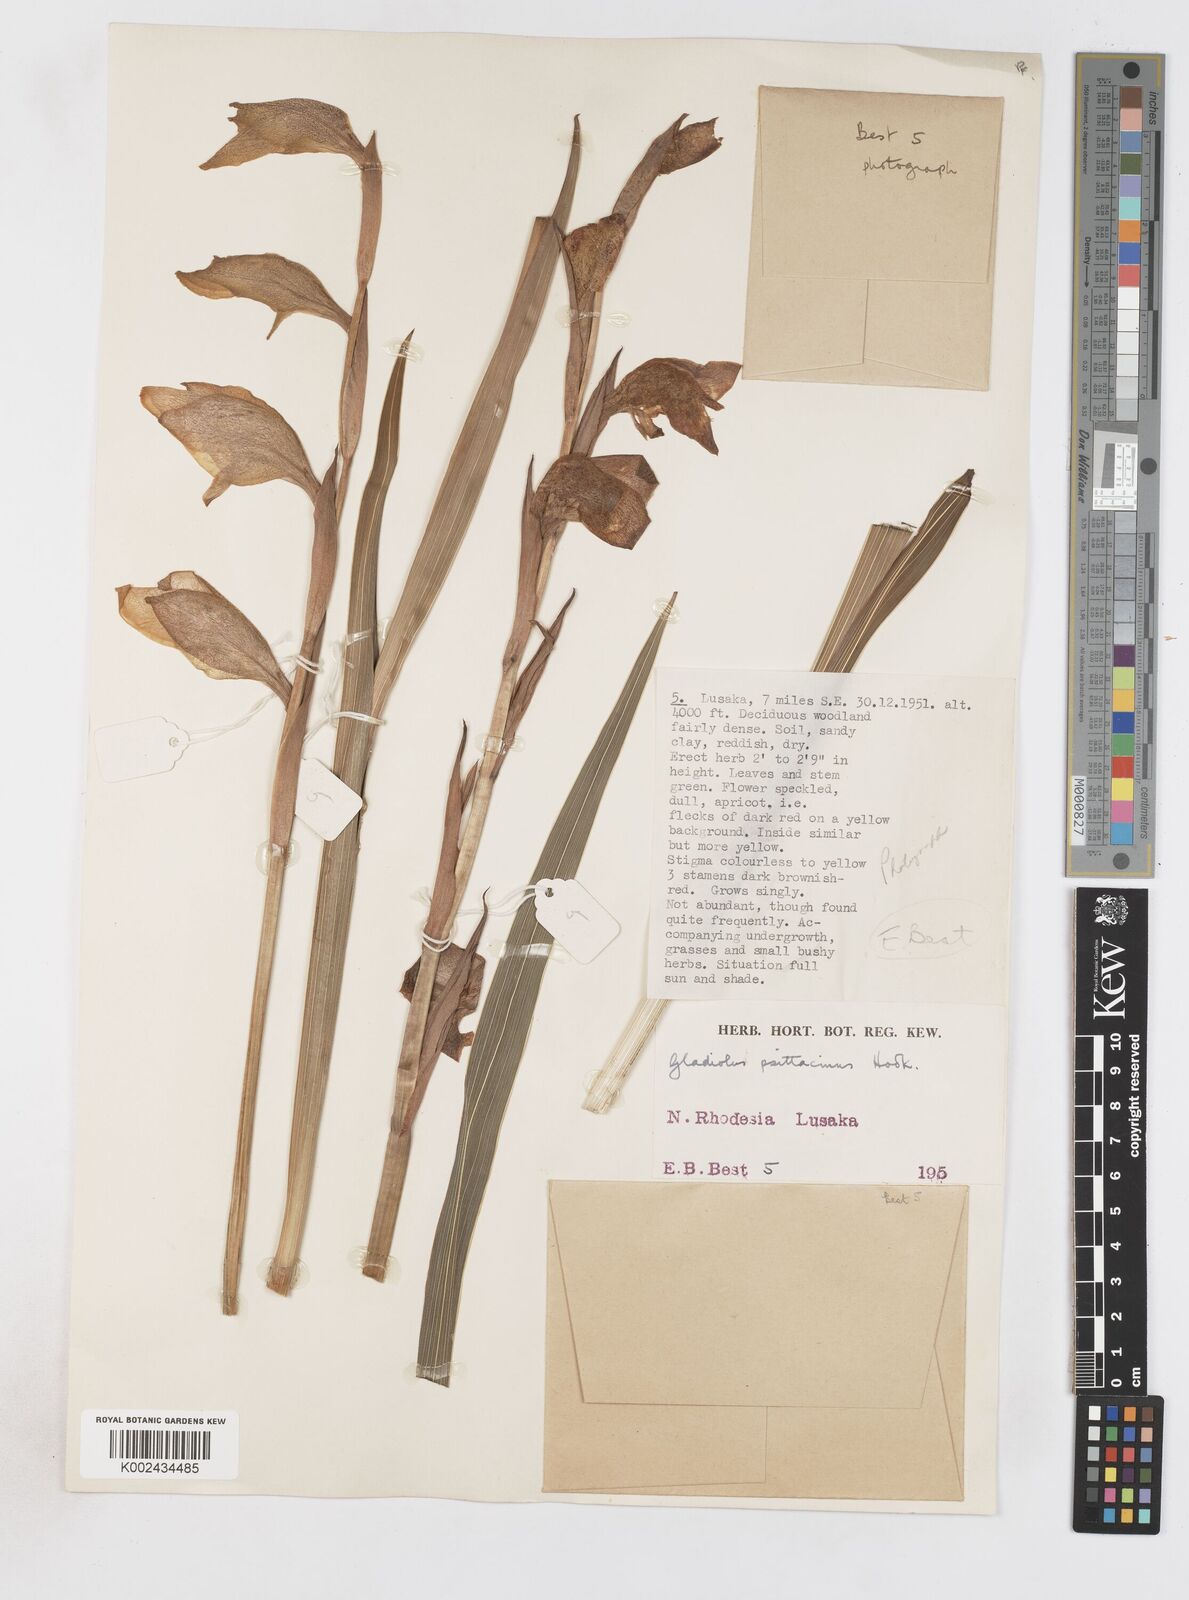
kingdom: Plantae
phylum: Tracheophyta
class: Liliopsida
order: Asparagales
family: Iridaceae
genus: Gladiolus
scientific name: Gladiolus dalenii
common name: Cornflag
